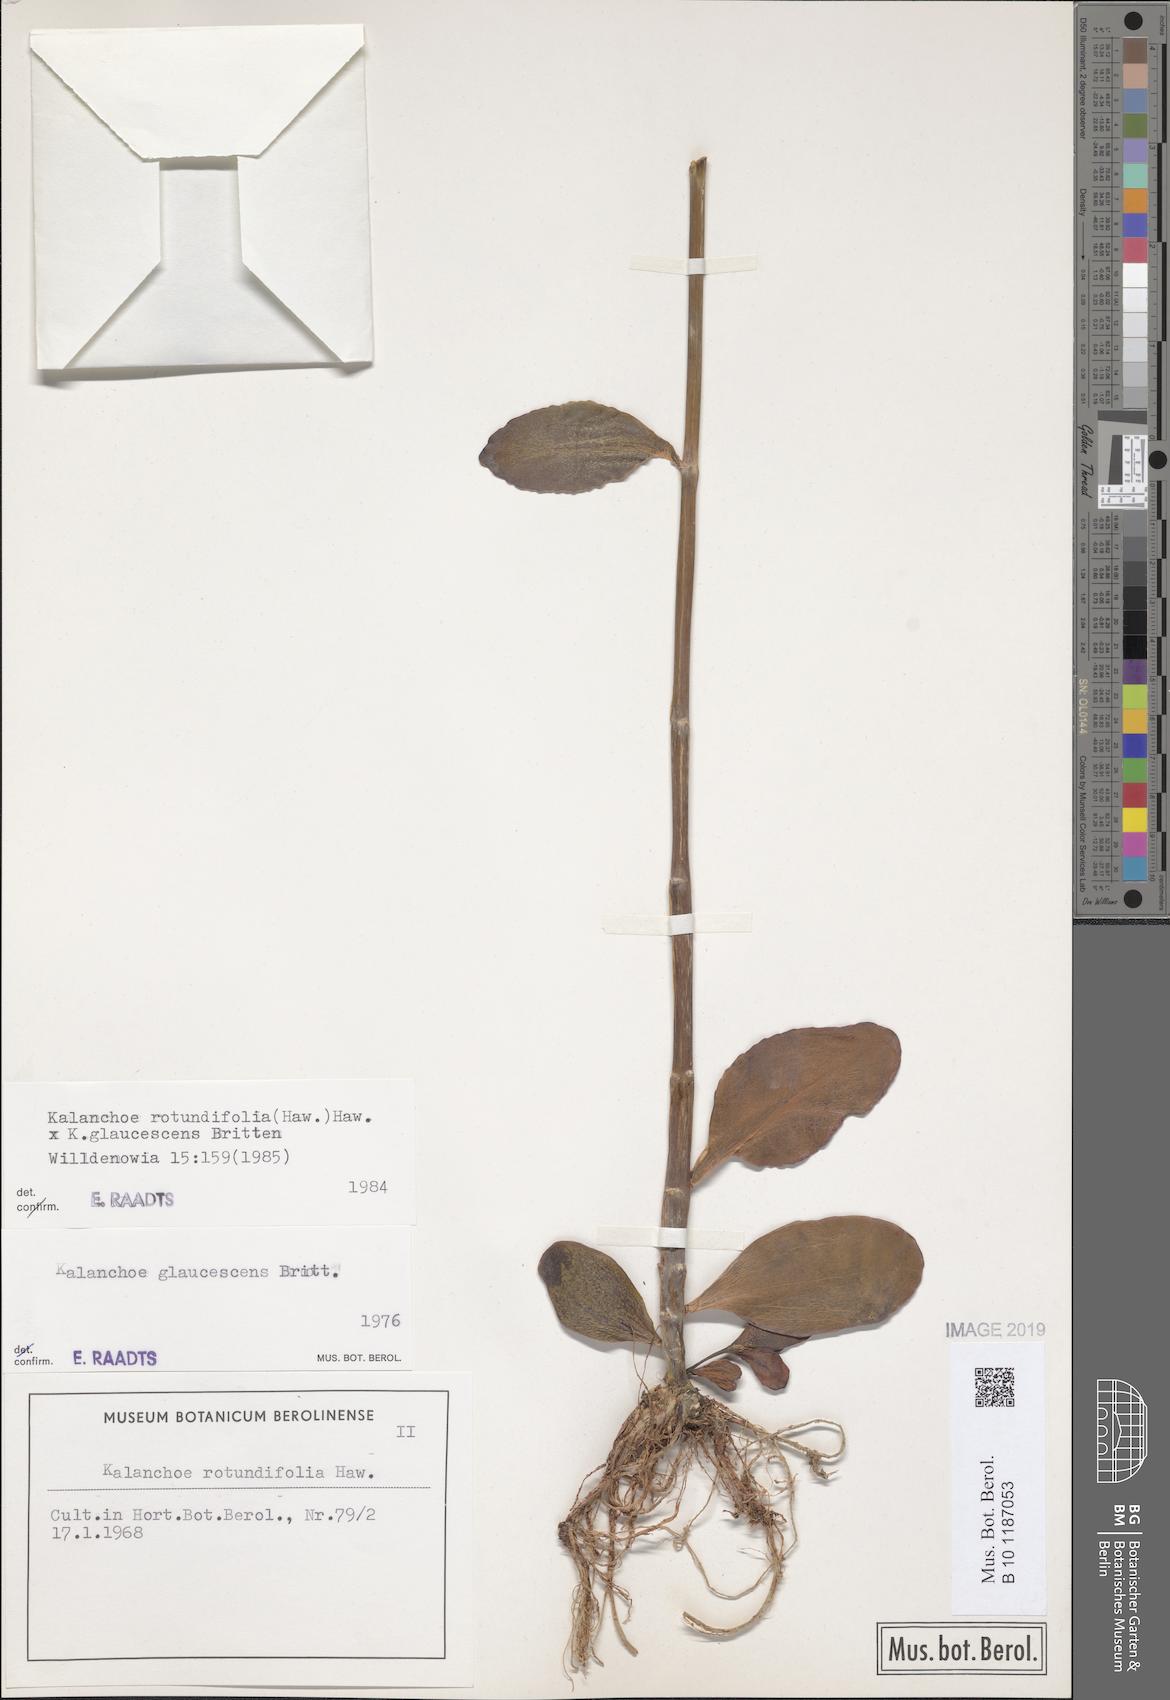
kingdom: Plantae
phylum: Tracheophyta
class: Magnoliopsida
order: Saxifragales
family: Crassulaceae
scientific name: Crassulaceae
